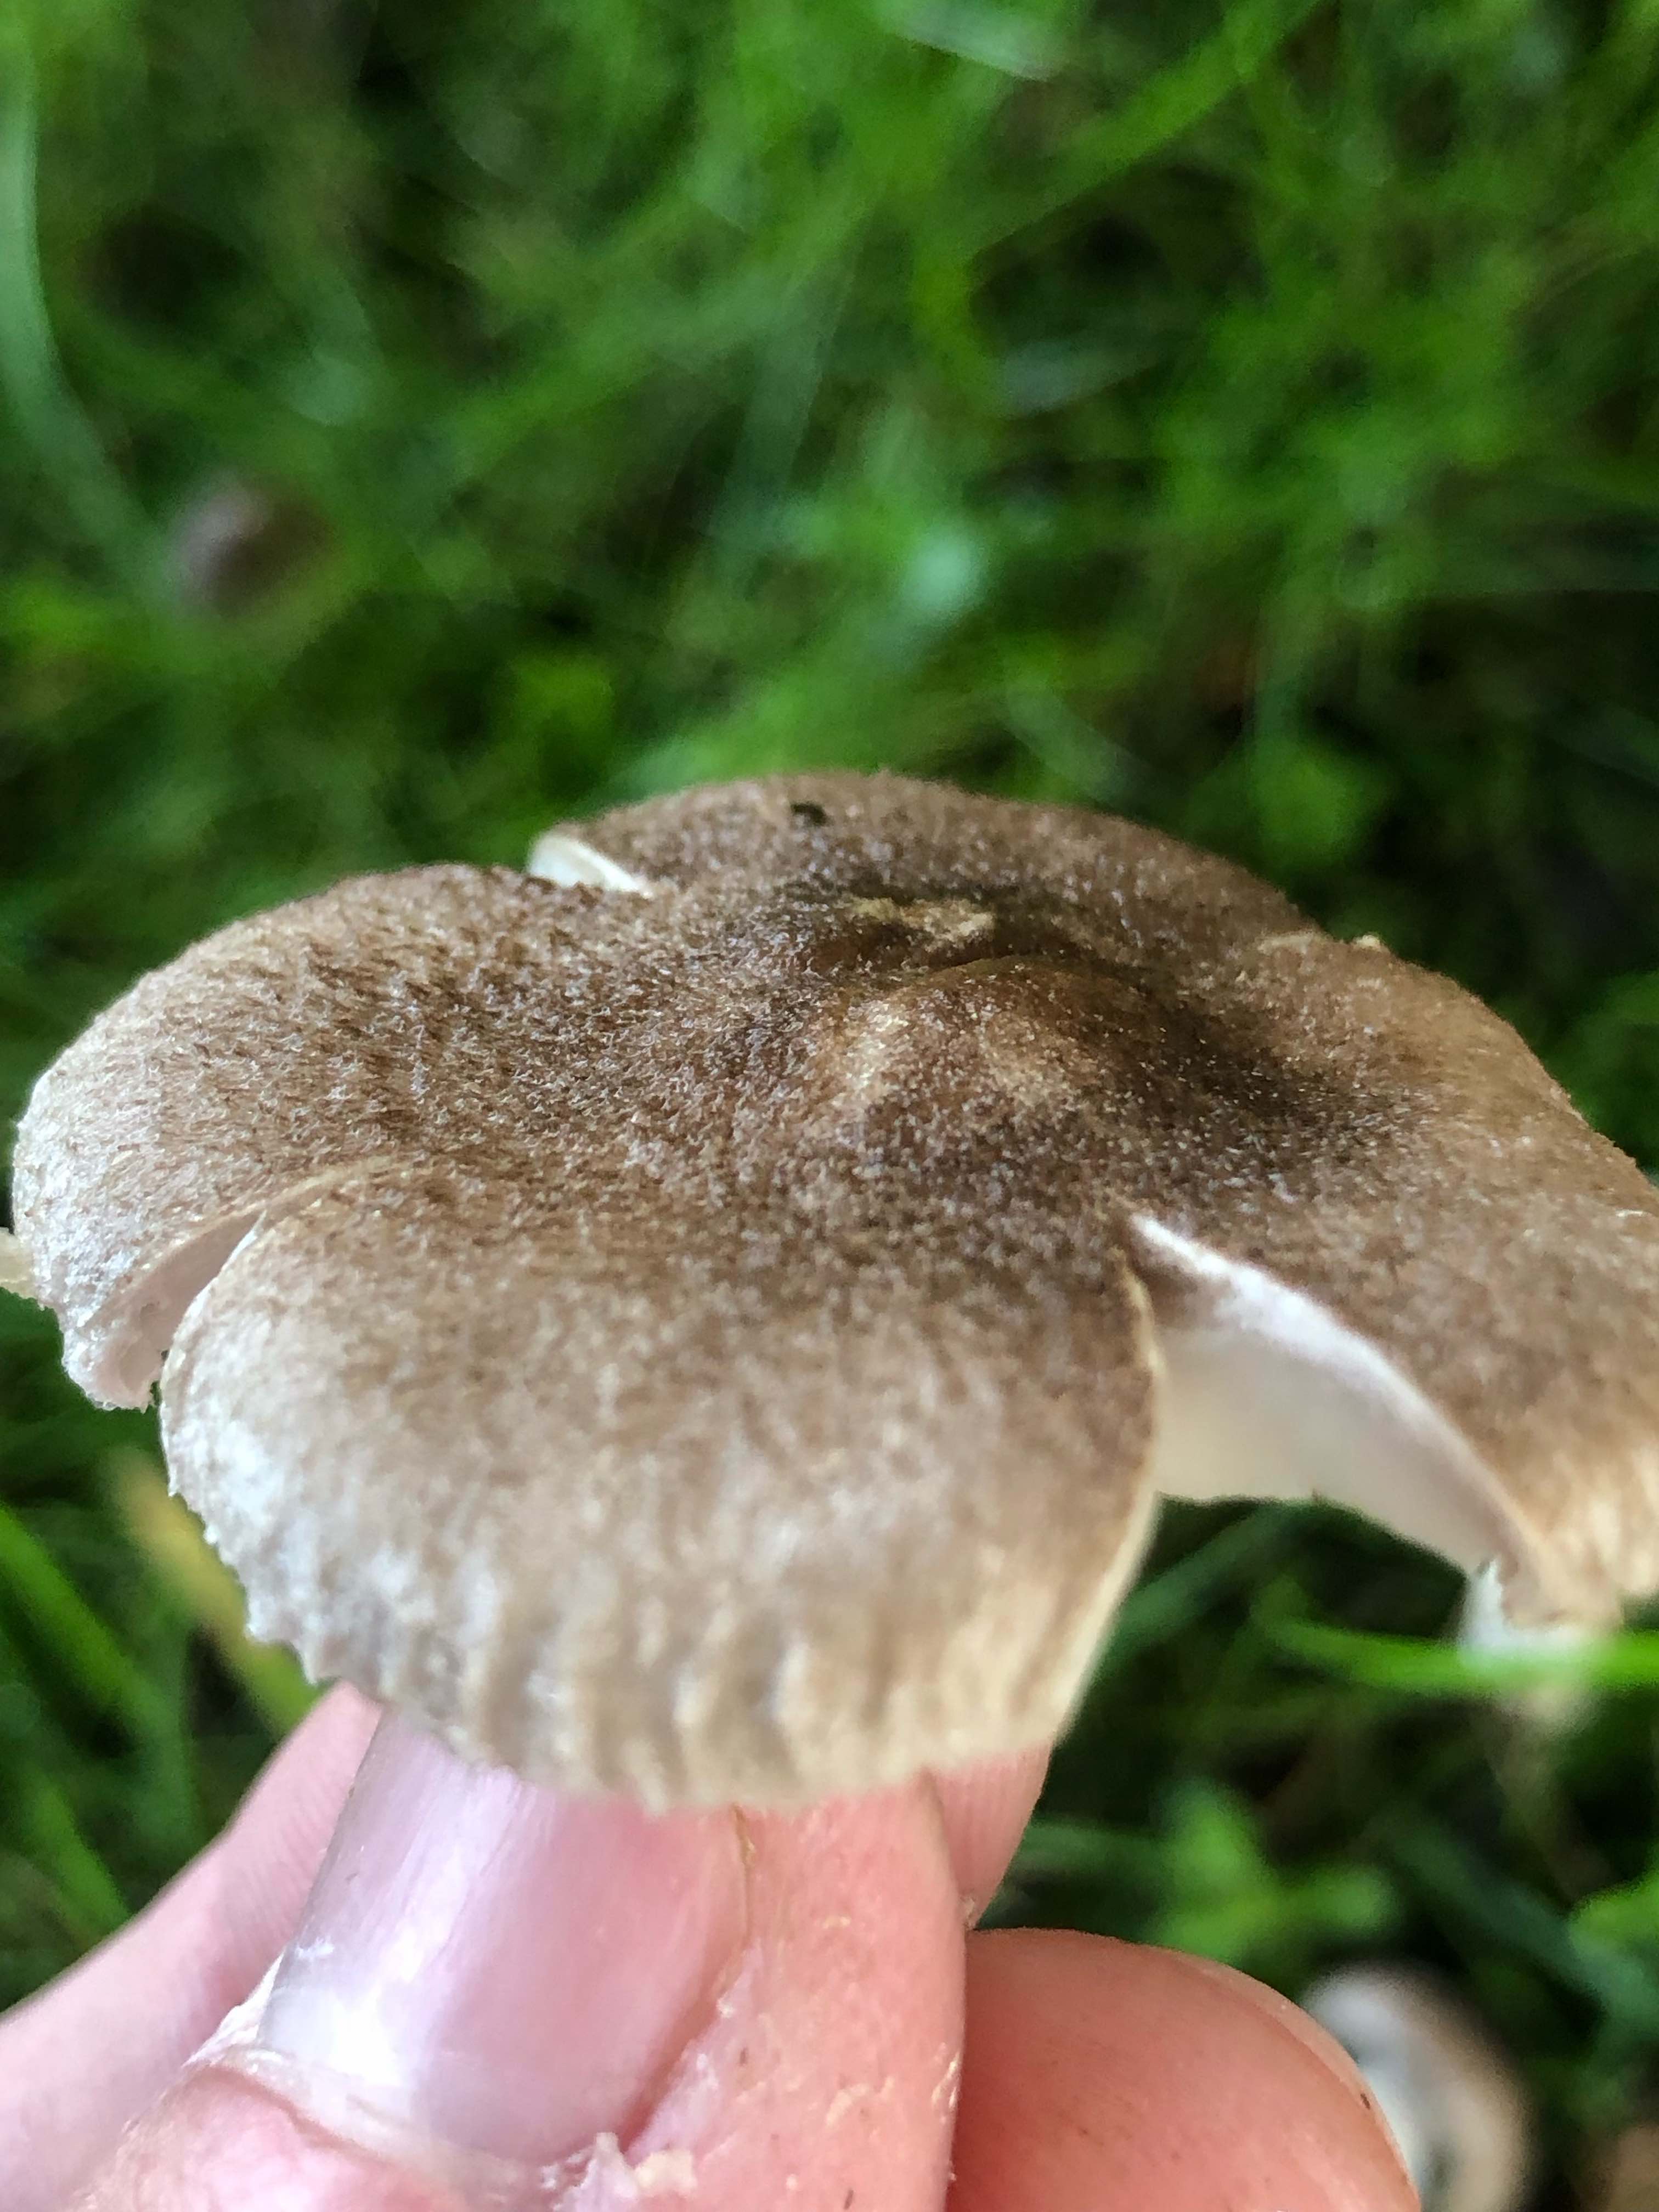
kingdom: Fungi
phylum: Basidiomycota
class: Agaricomycetes
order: Agaricales
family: Tricholomataceae
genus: Tricholoma
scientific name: Tricholoma argyraceum
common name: slør-ridderhat
